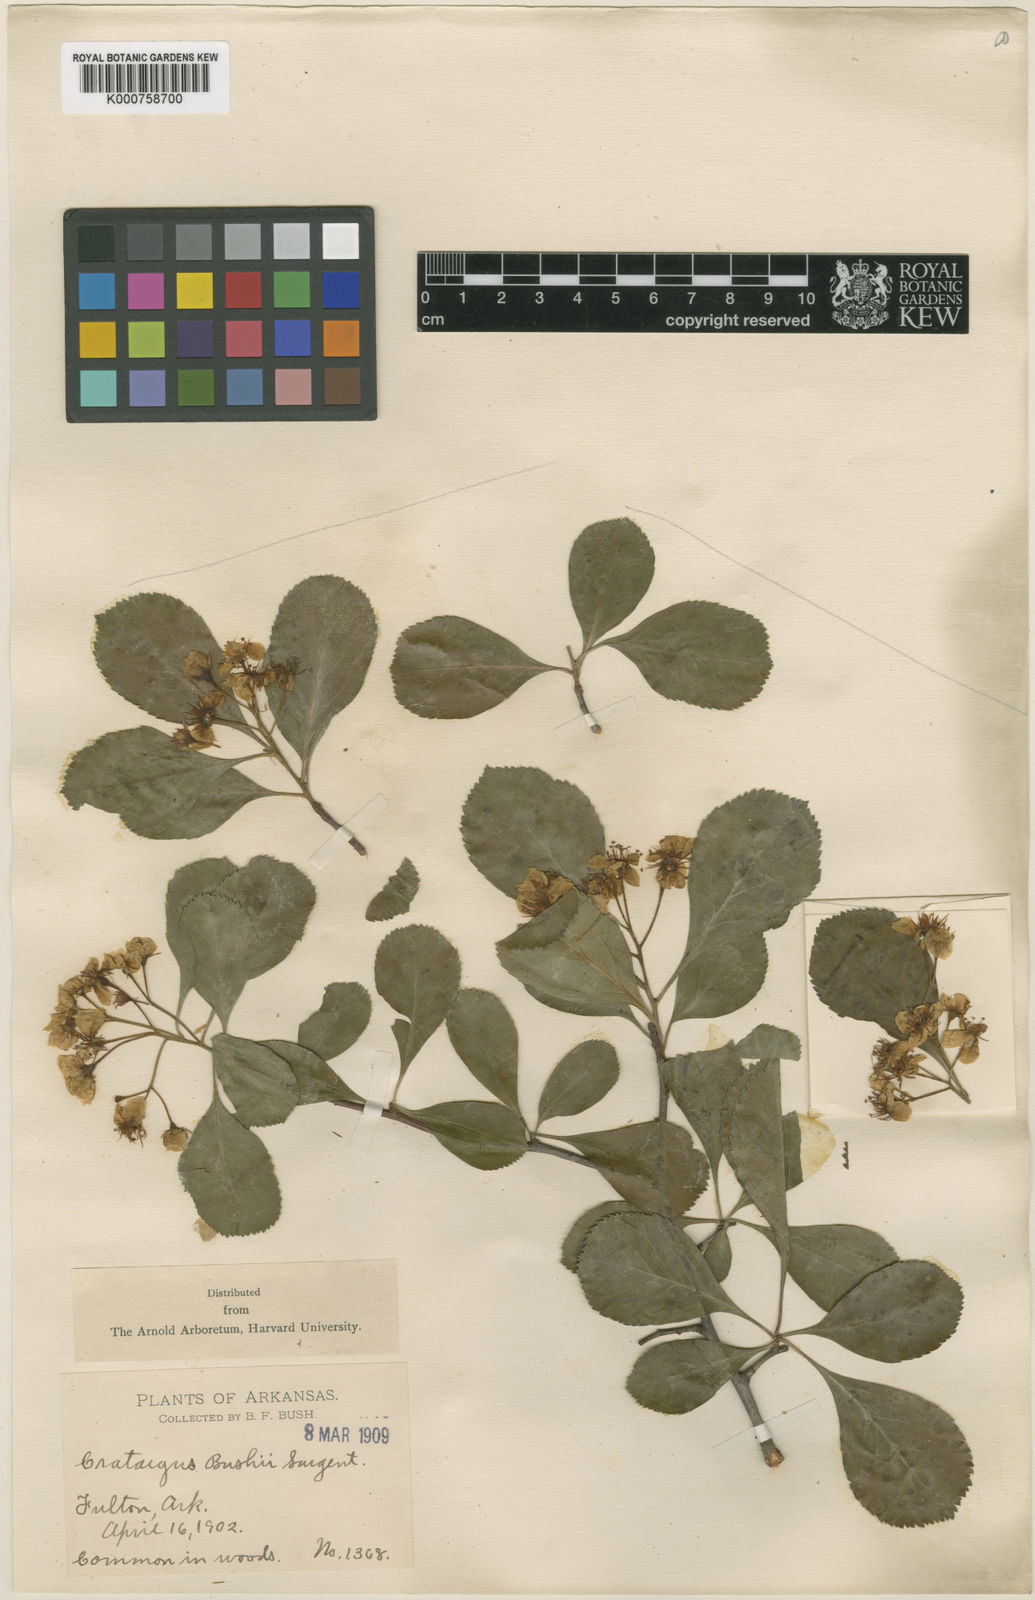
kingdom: Plantae
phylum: Tracheophyta
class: Magnoliopsida
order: Rosales
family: Rosaceae
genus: Crataegus
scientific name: Crataegus crus-galli
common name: Cockspurthorn
